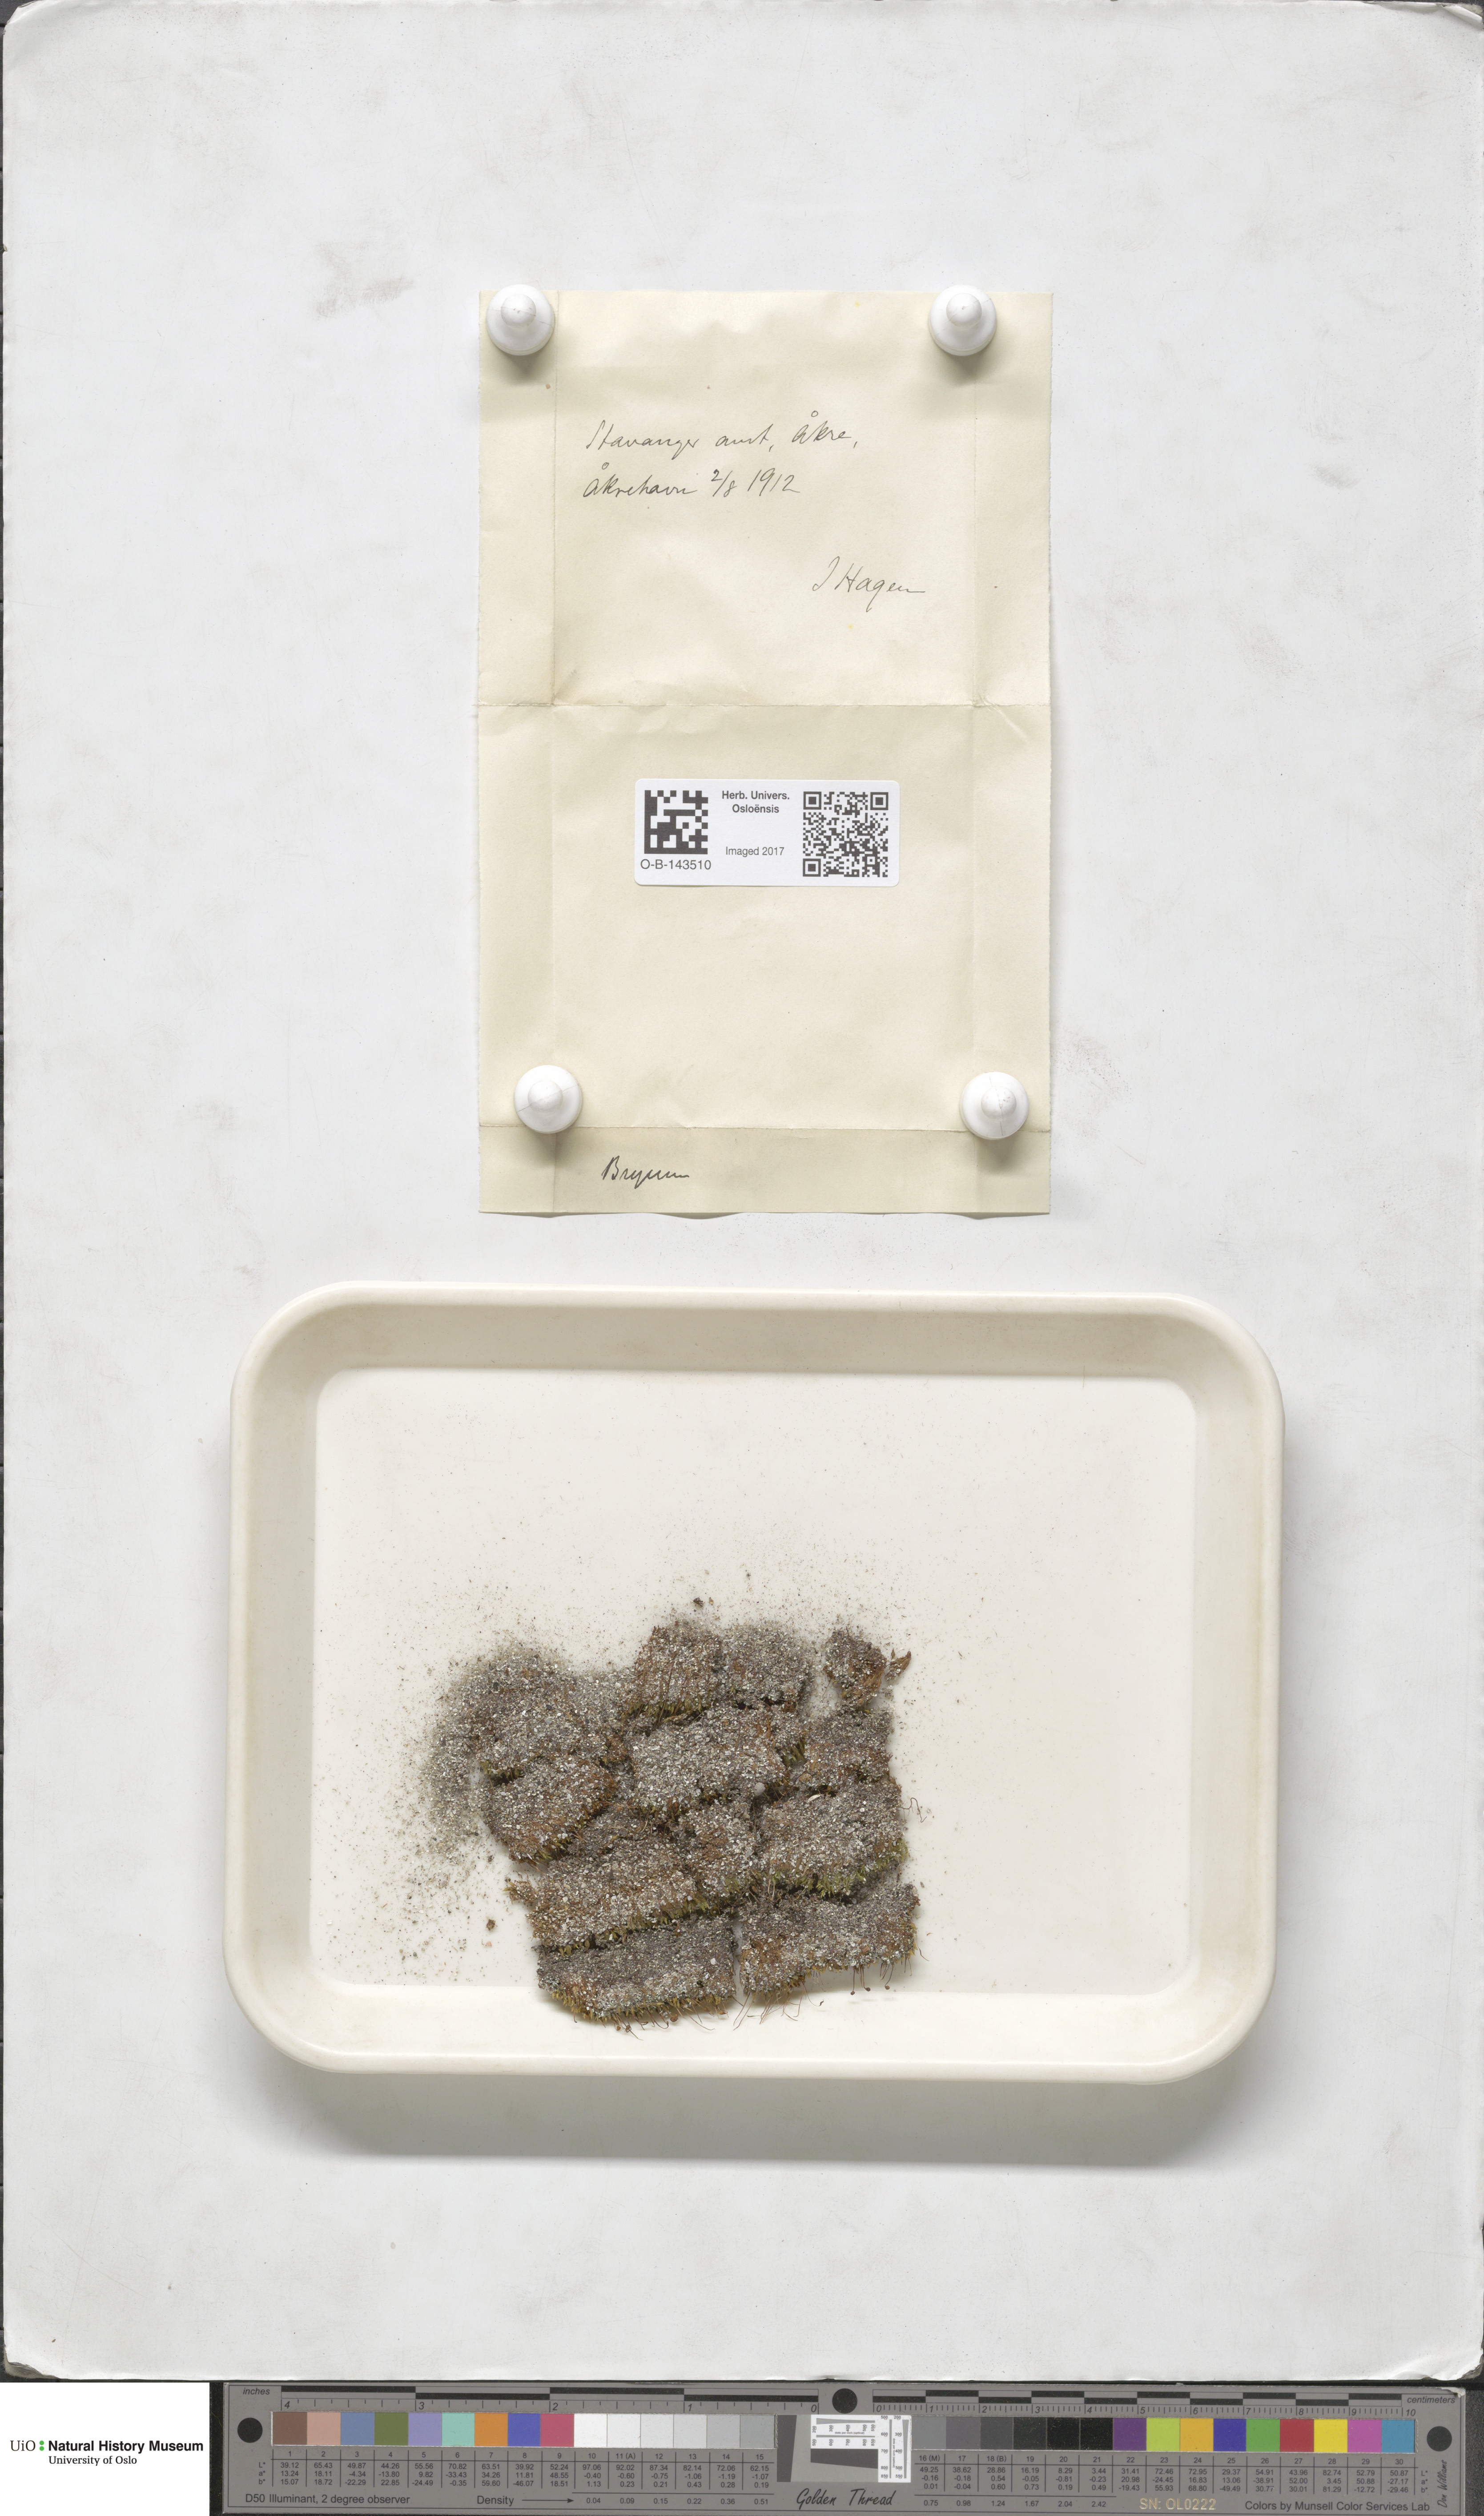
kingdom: Plantae
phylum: Bryophyta
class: Bryopsida
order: Bryales
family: Bryaceae
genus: Bryum
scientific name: Bryum
